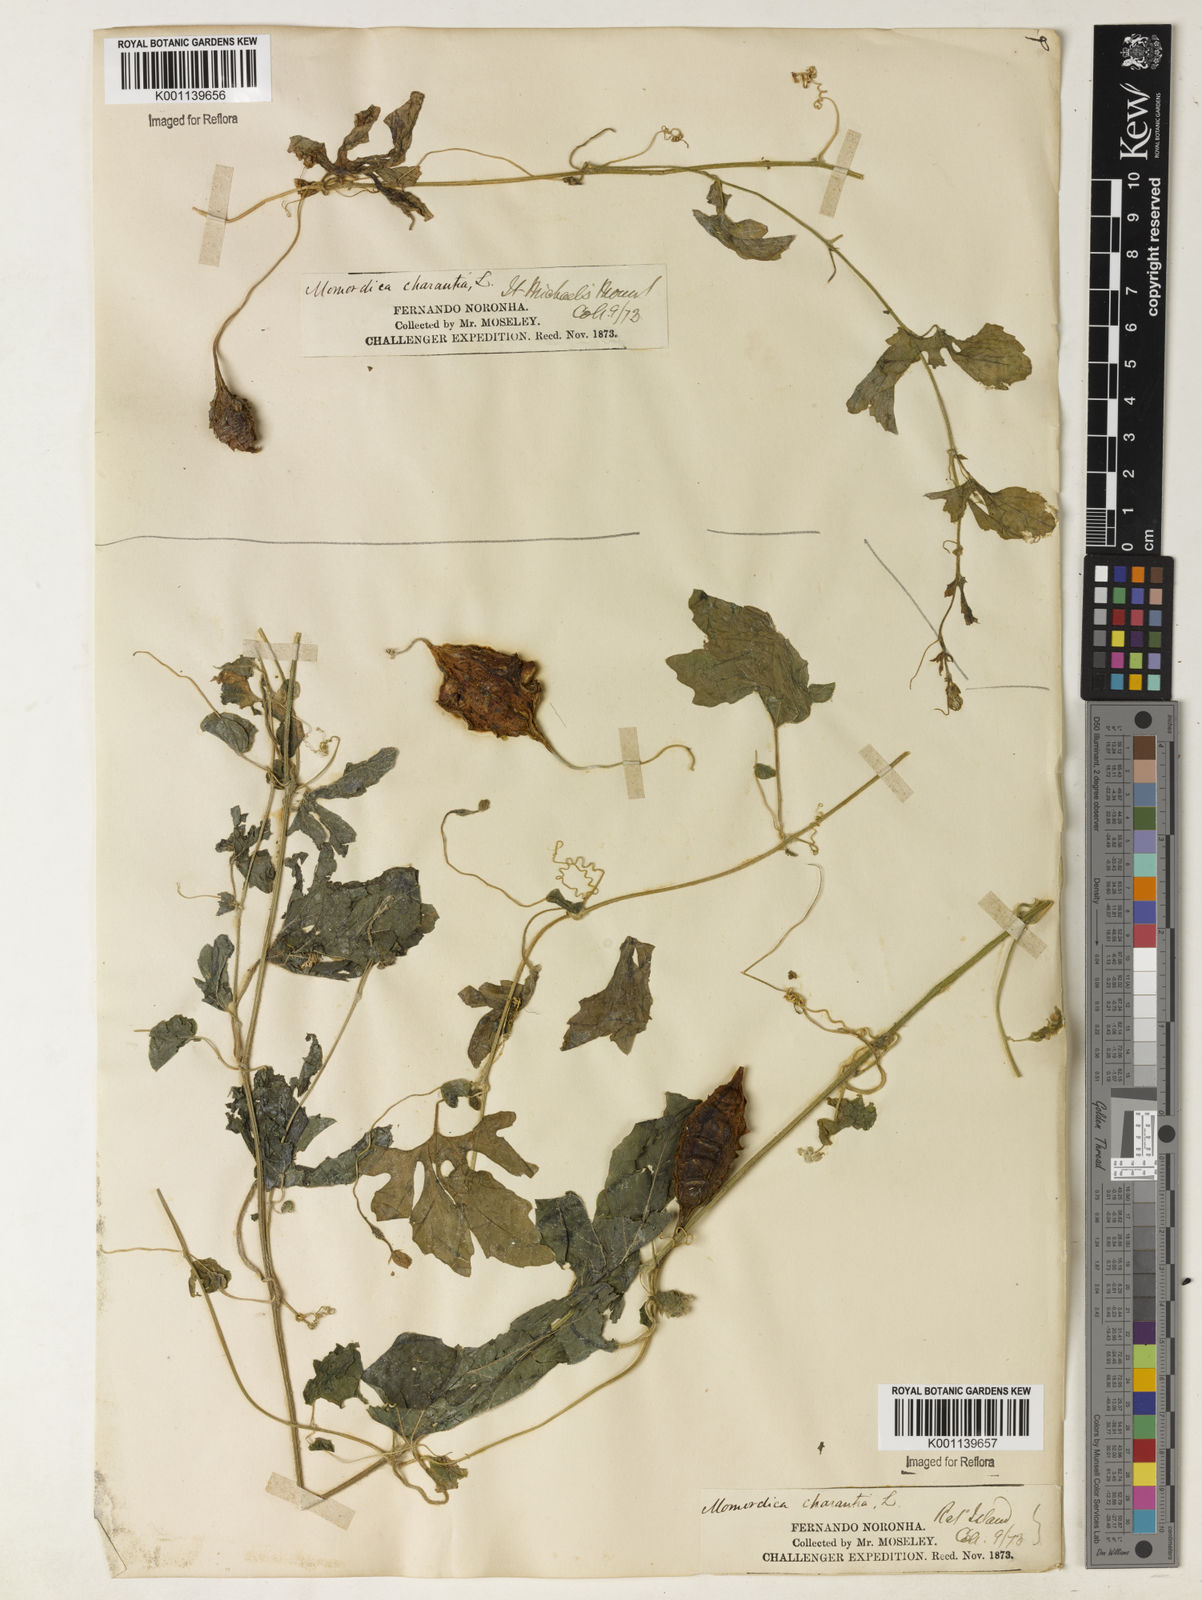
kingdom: Plantae
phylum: Tracheophyta
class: Magnoliopsida
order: Cucurbitales
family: Cucurbitaceae
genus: Momordica
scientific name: Momordica charantia
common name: Balsampear
